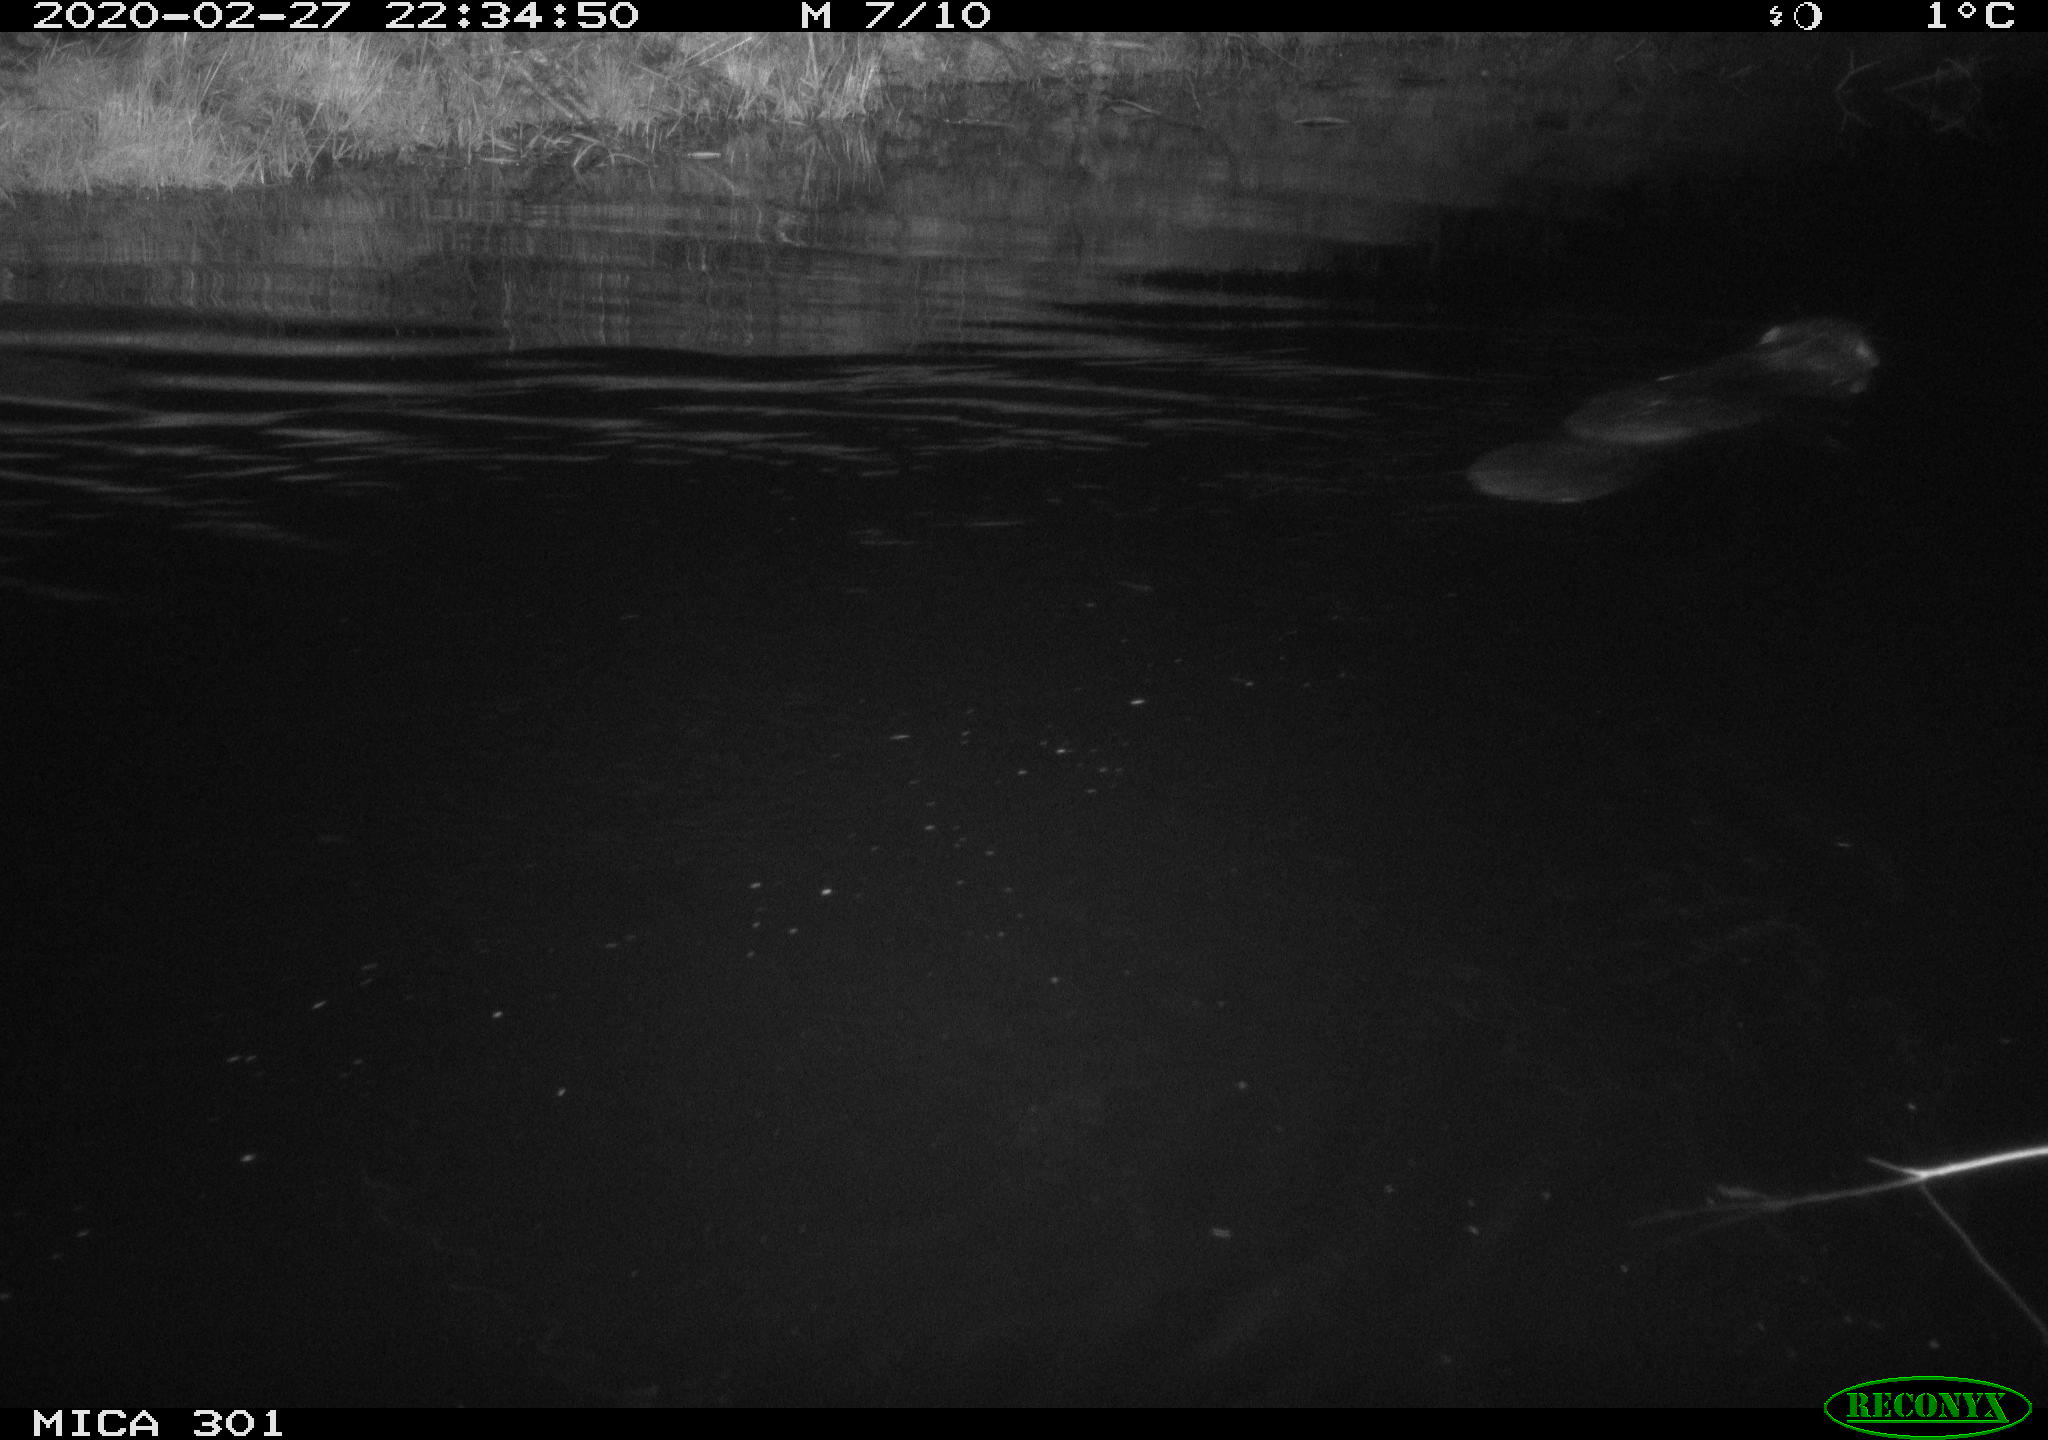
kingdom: Animalia
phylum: Chordata
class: Mammalia
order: Rodentia
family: Castoridae
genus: Castor
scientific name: Castor fiber
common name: Eurasian beaver
